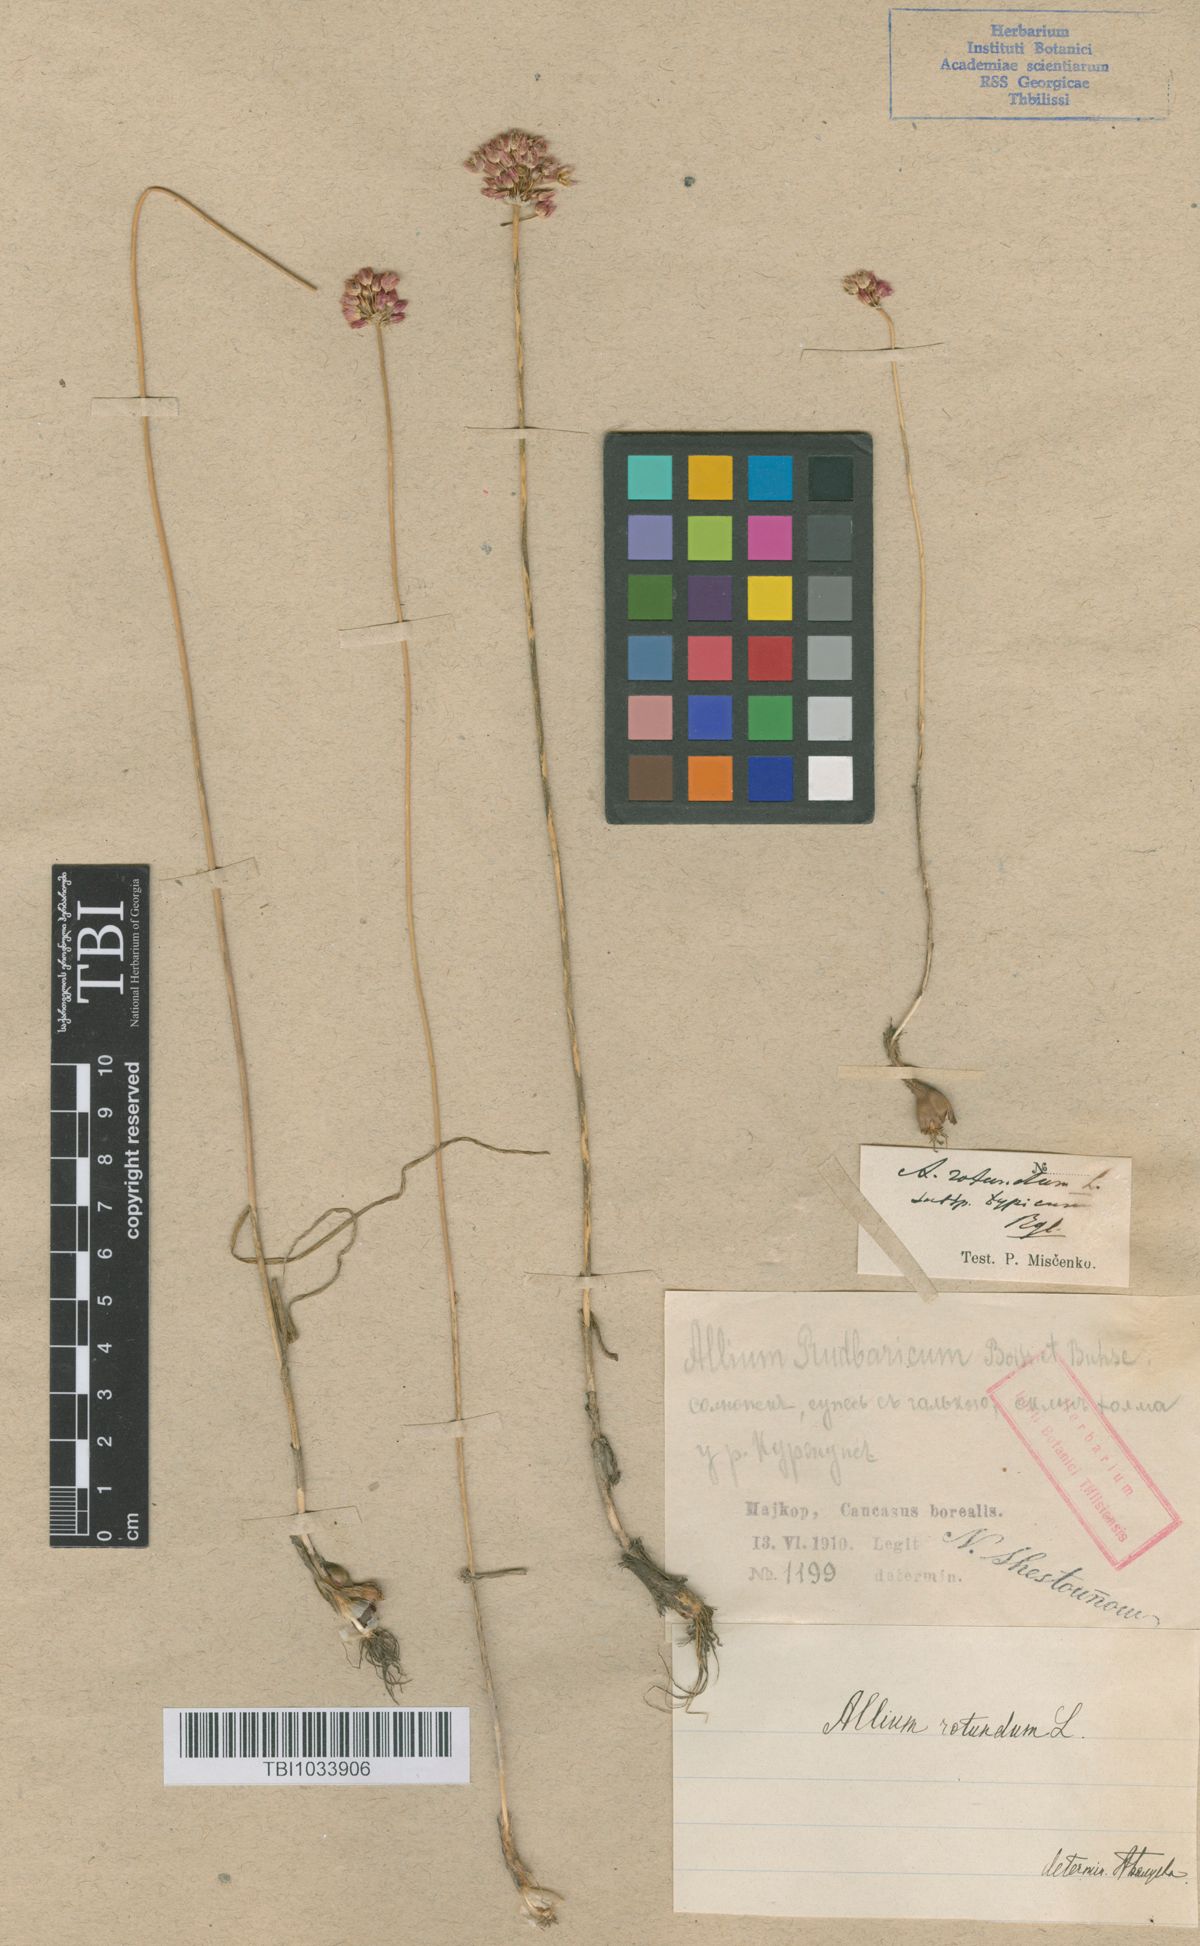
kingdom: Plantae
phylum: Tracheophyta
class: Liliopsida
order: Asparagales
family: Amaryllidaceae
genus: Allium
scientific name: Allium rotundum
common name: Sand leek
